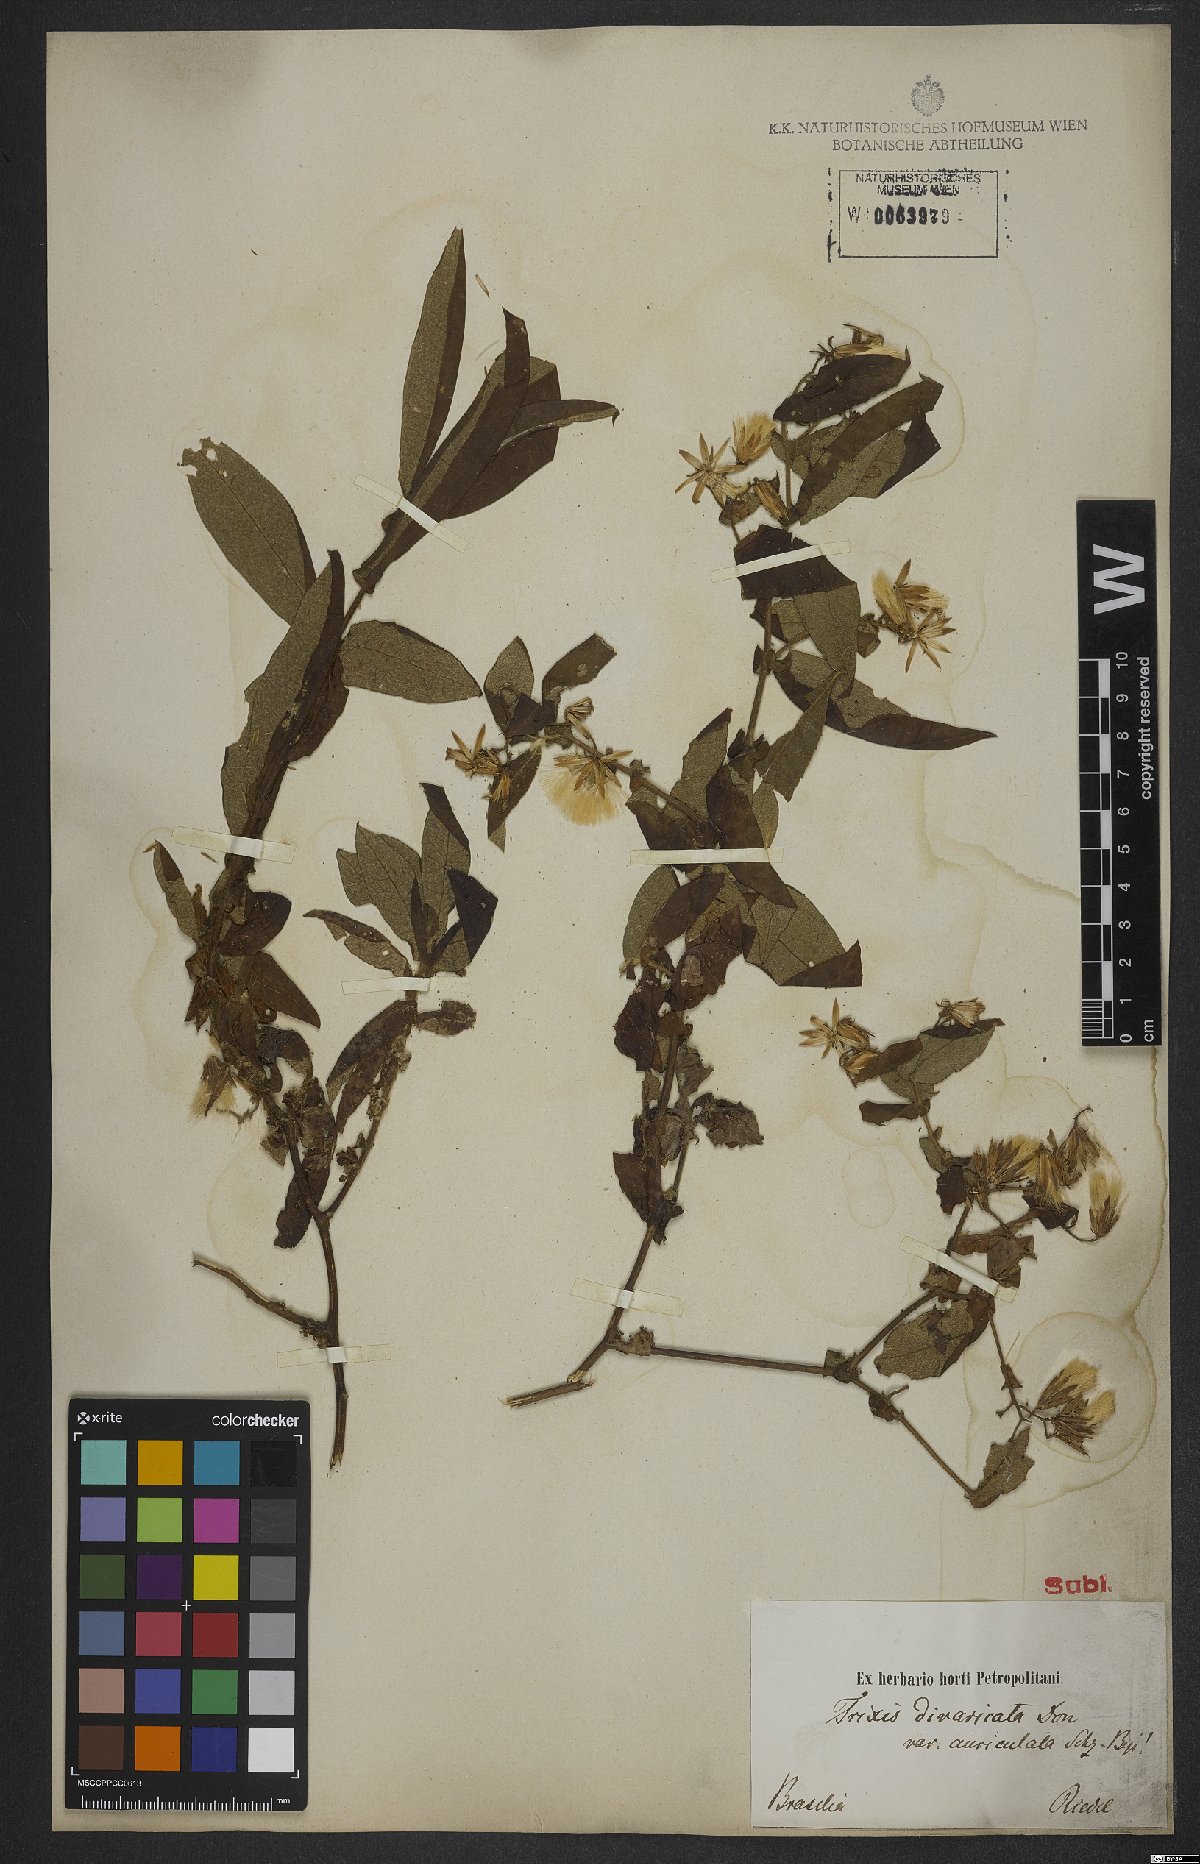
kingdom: Plantae
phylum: Tracheophyta
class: Magnoliopsida
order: Asterales
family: Asteraceae
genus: Trixis
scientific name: Trixis divaricata
